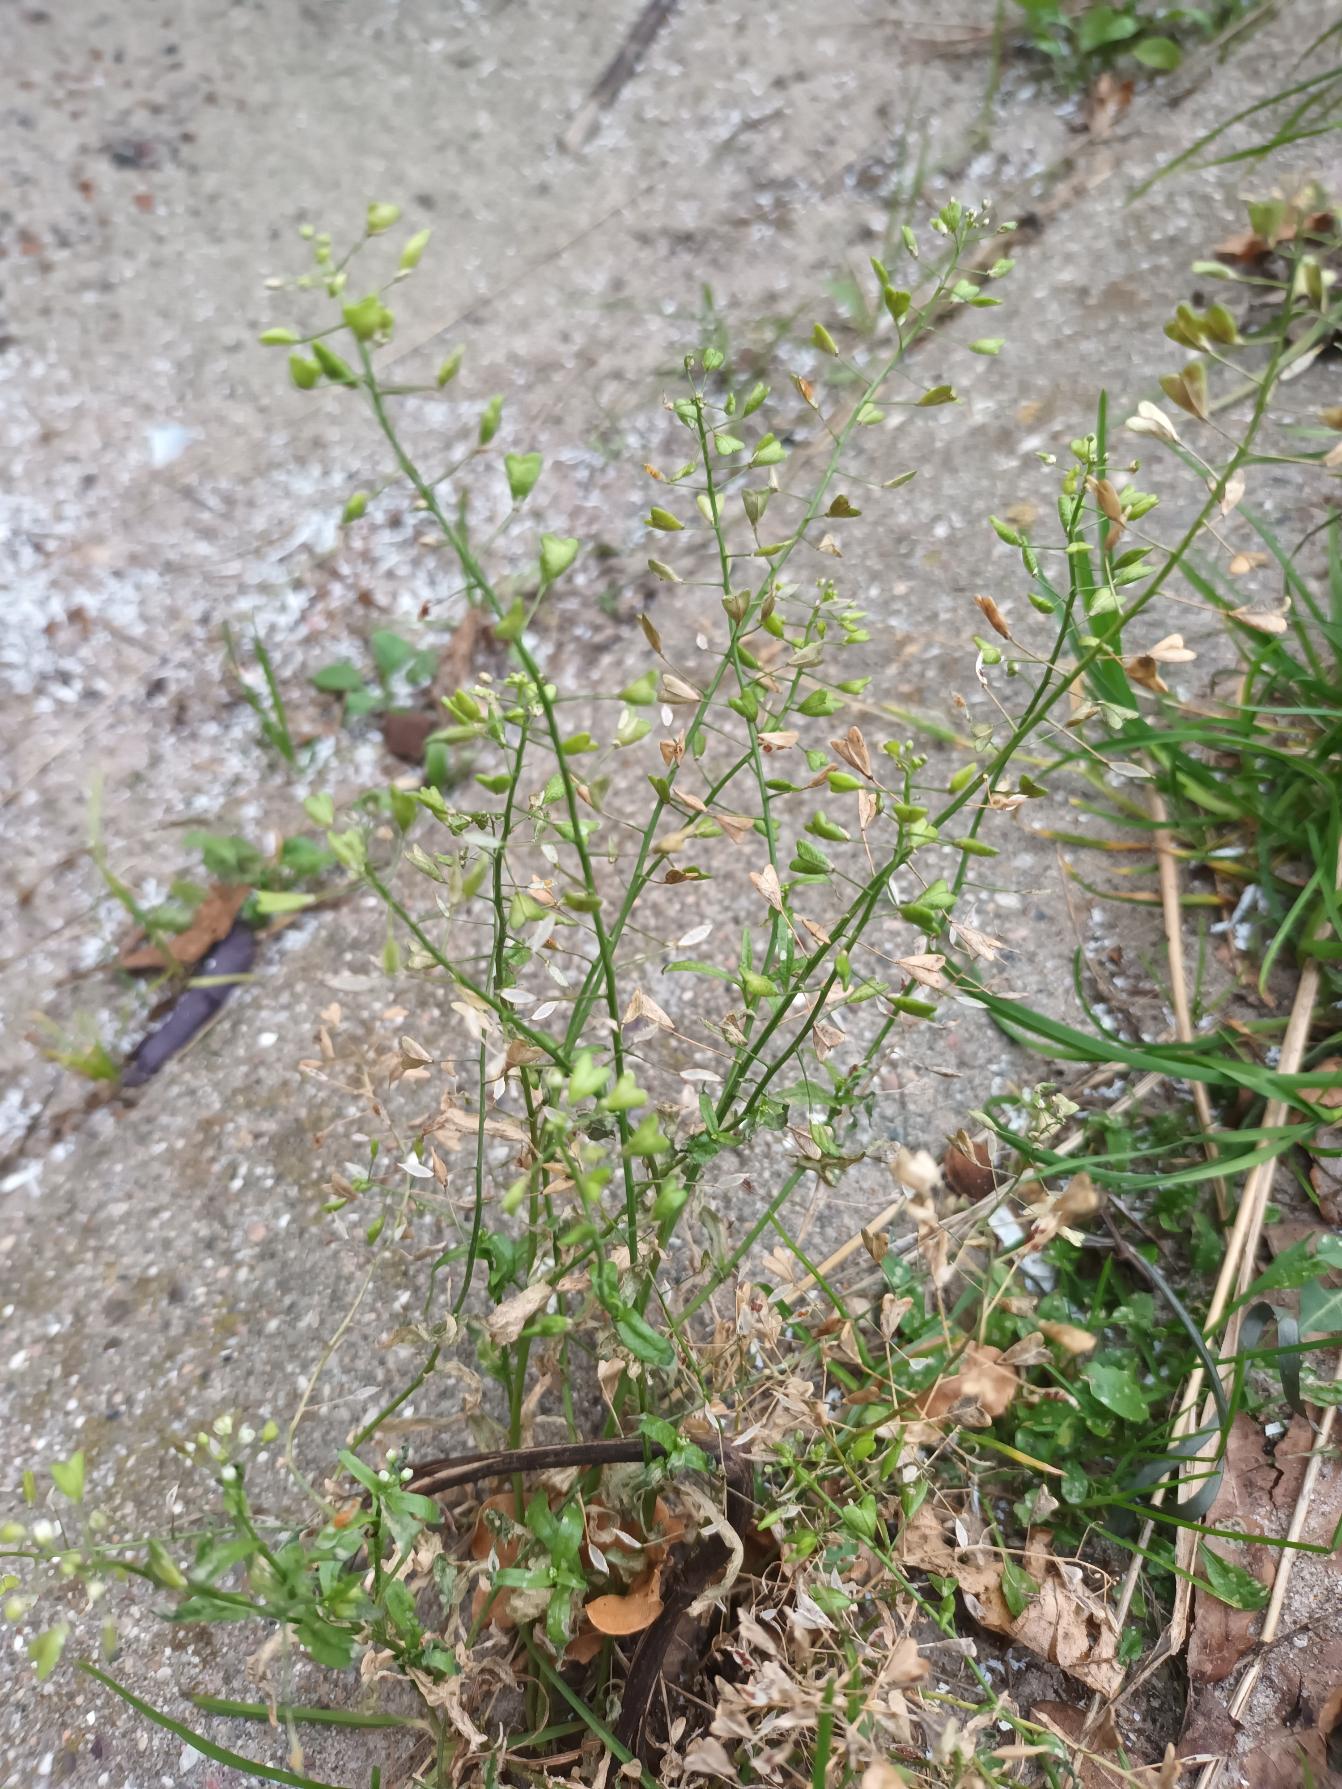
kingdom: Plantae
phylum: Tracheophyta
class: Magnoliopsida
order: Brassicales
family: Brassicaceae
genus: Capsella
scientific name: Capsella bursa-pastoris
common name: Hyrdetaske
